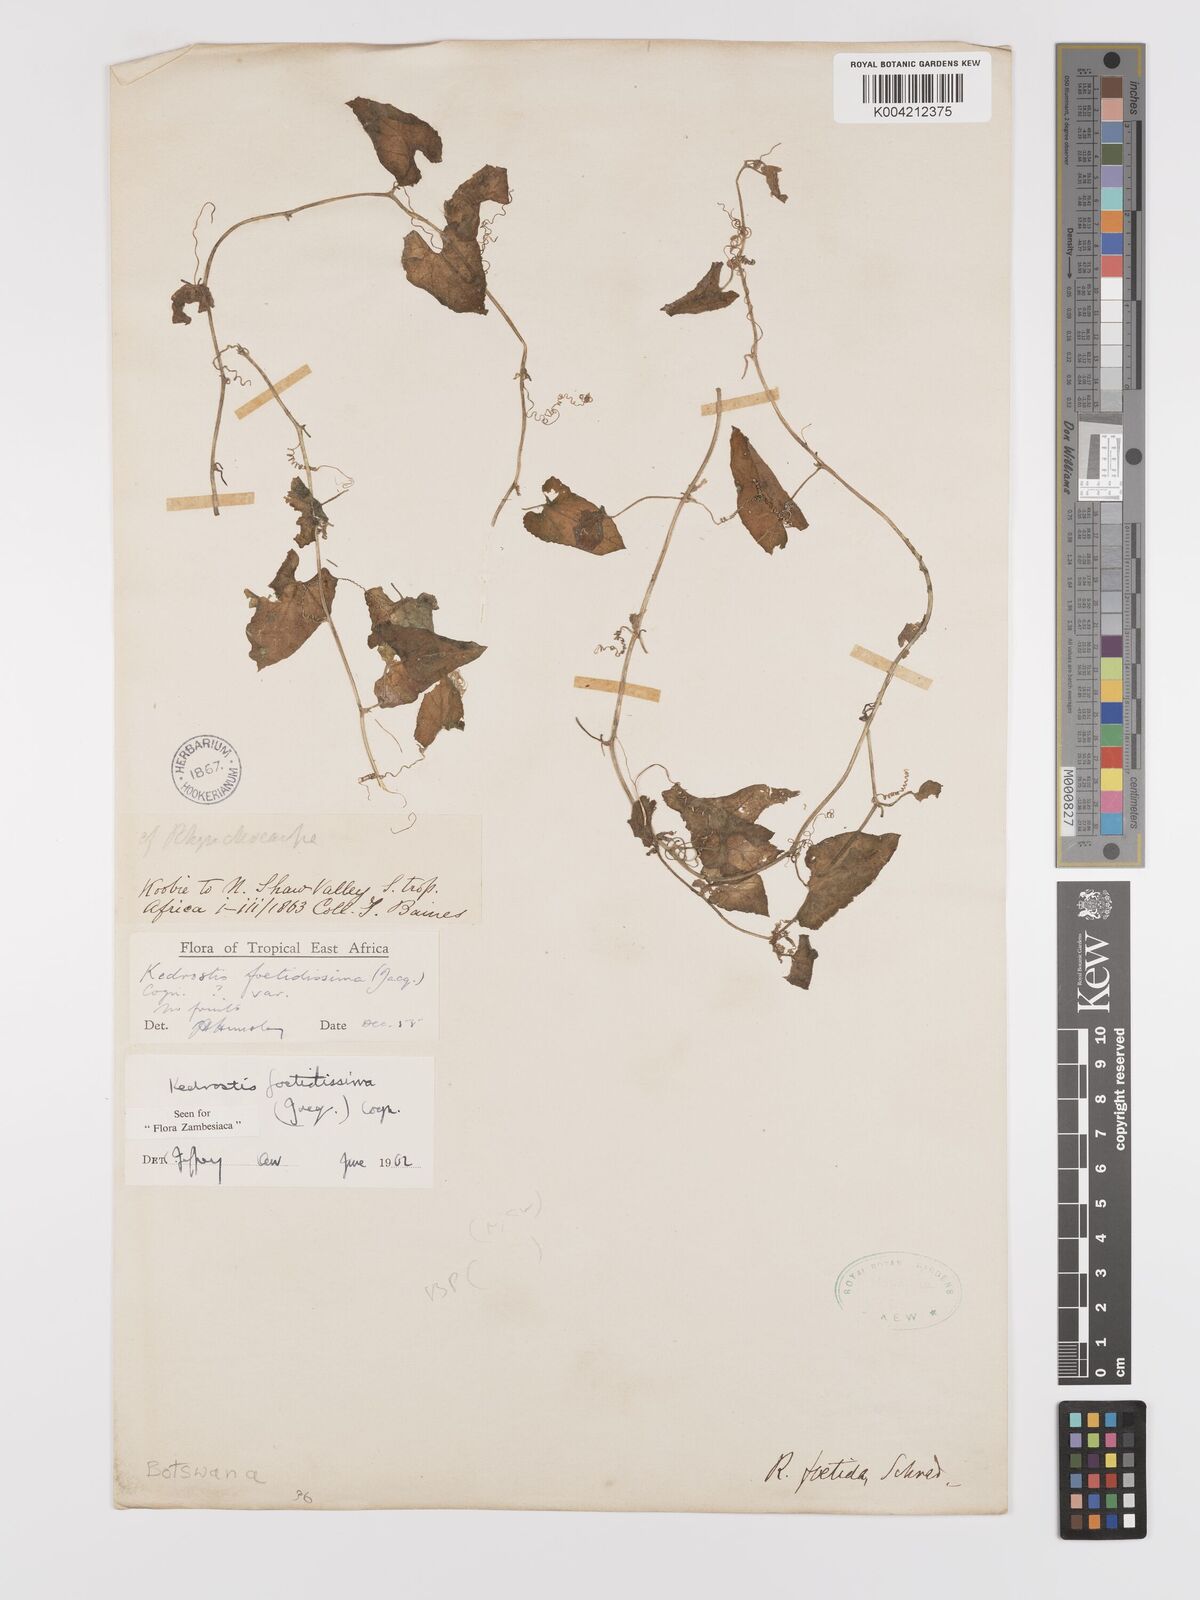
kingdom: Plantae
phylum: Tracheophyta
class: Magnoliopsida
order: Cucurbitales
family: Cucurbitaceae
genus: Kedrostis
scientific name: Kedrostis foetidissima
